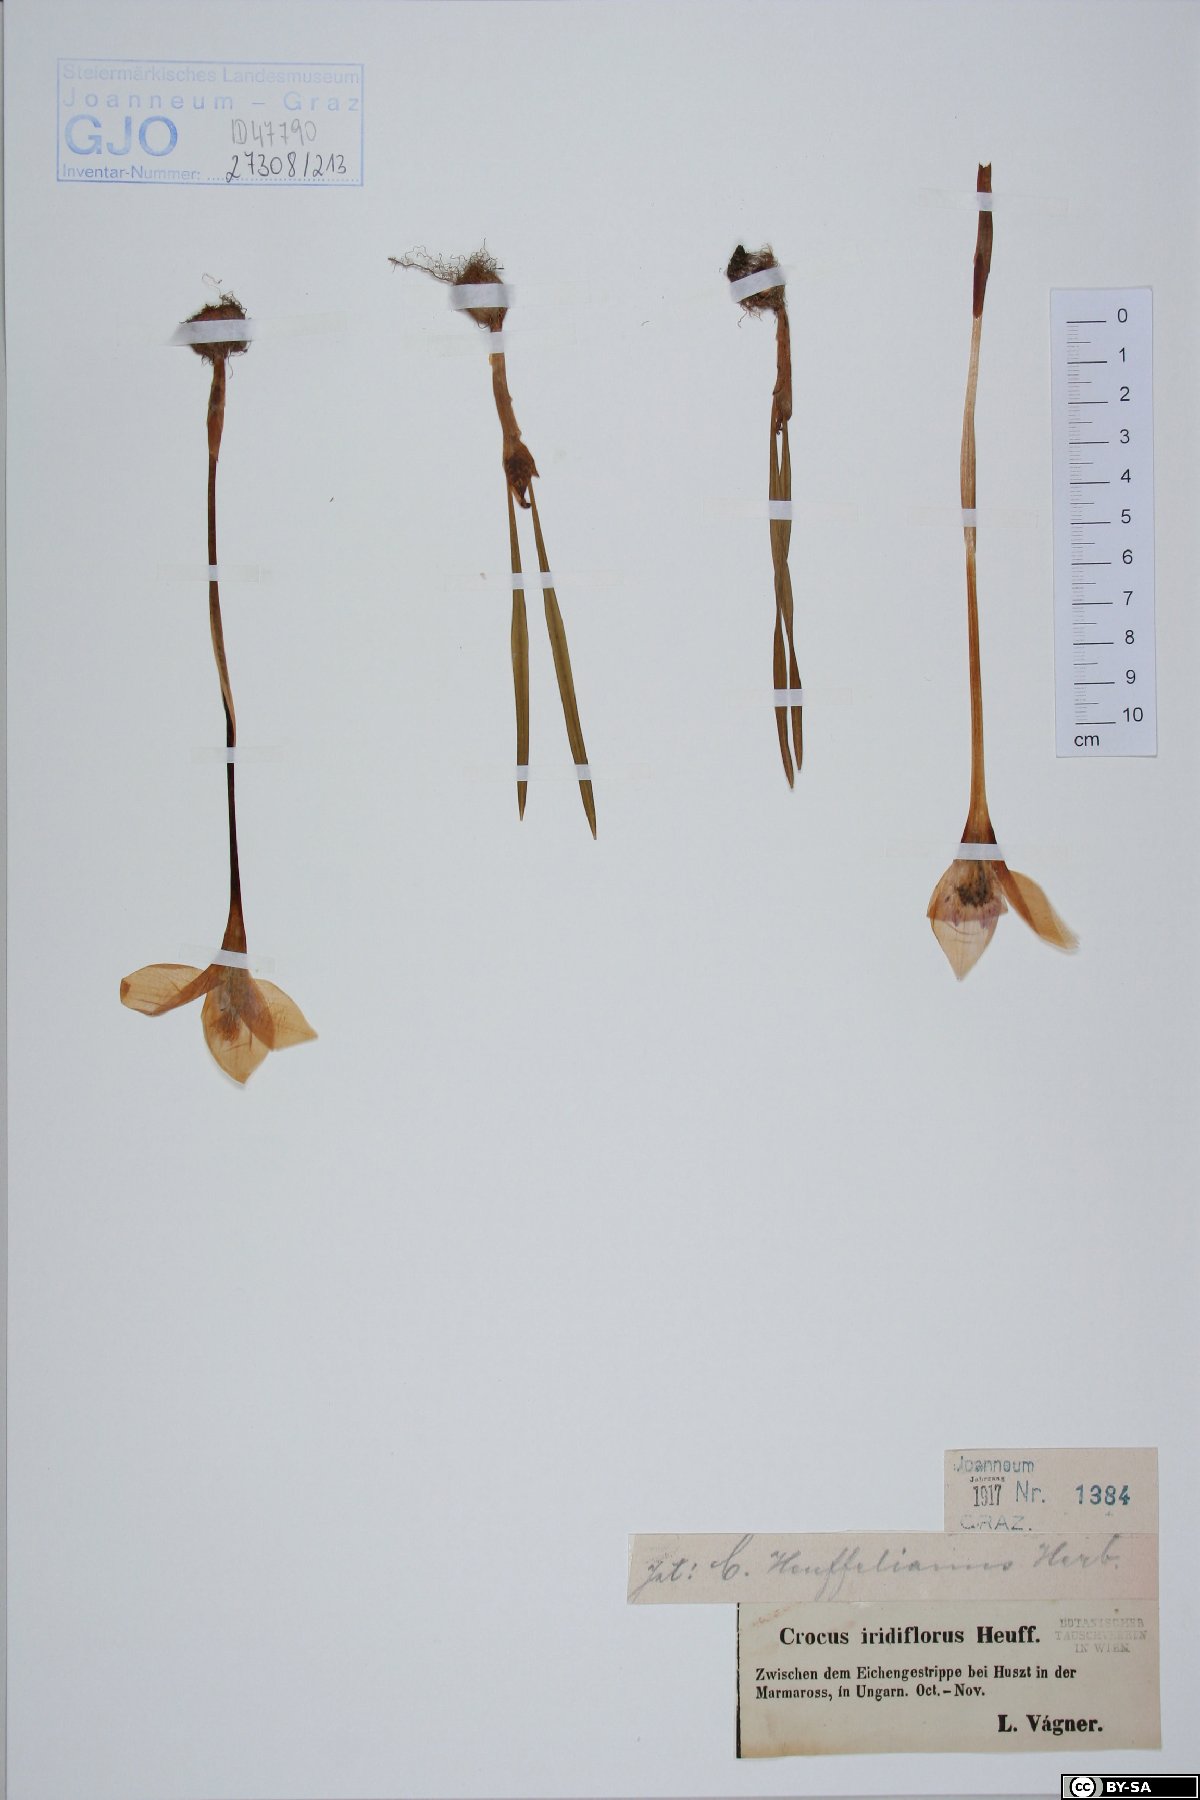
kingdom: Plantae
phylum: Tracheophyta
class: Liliopsida
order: Asparagales
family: Iridaceae
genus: Crocus
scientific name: Crocus banaticus
